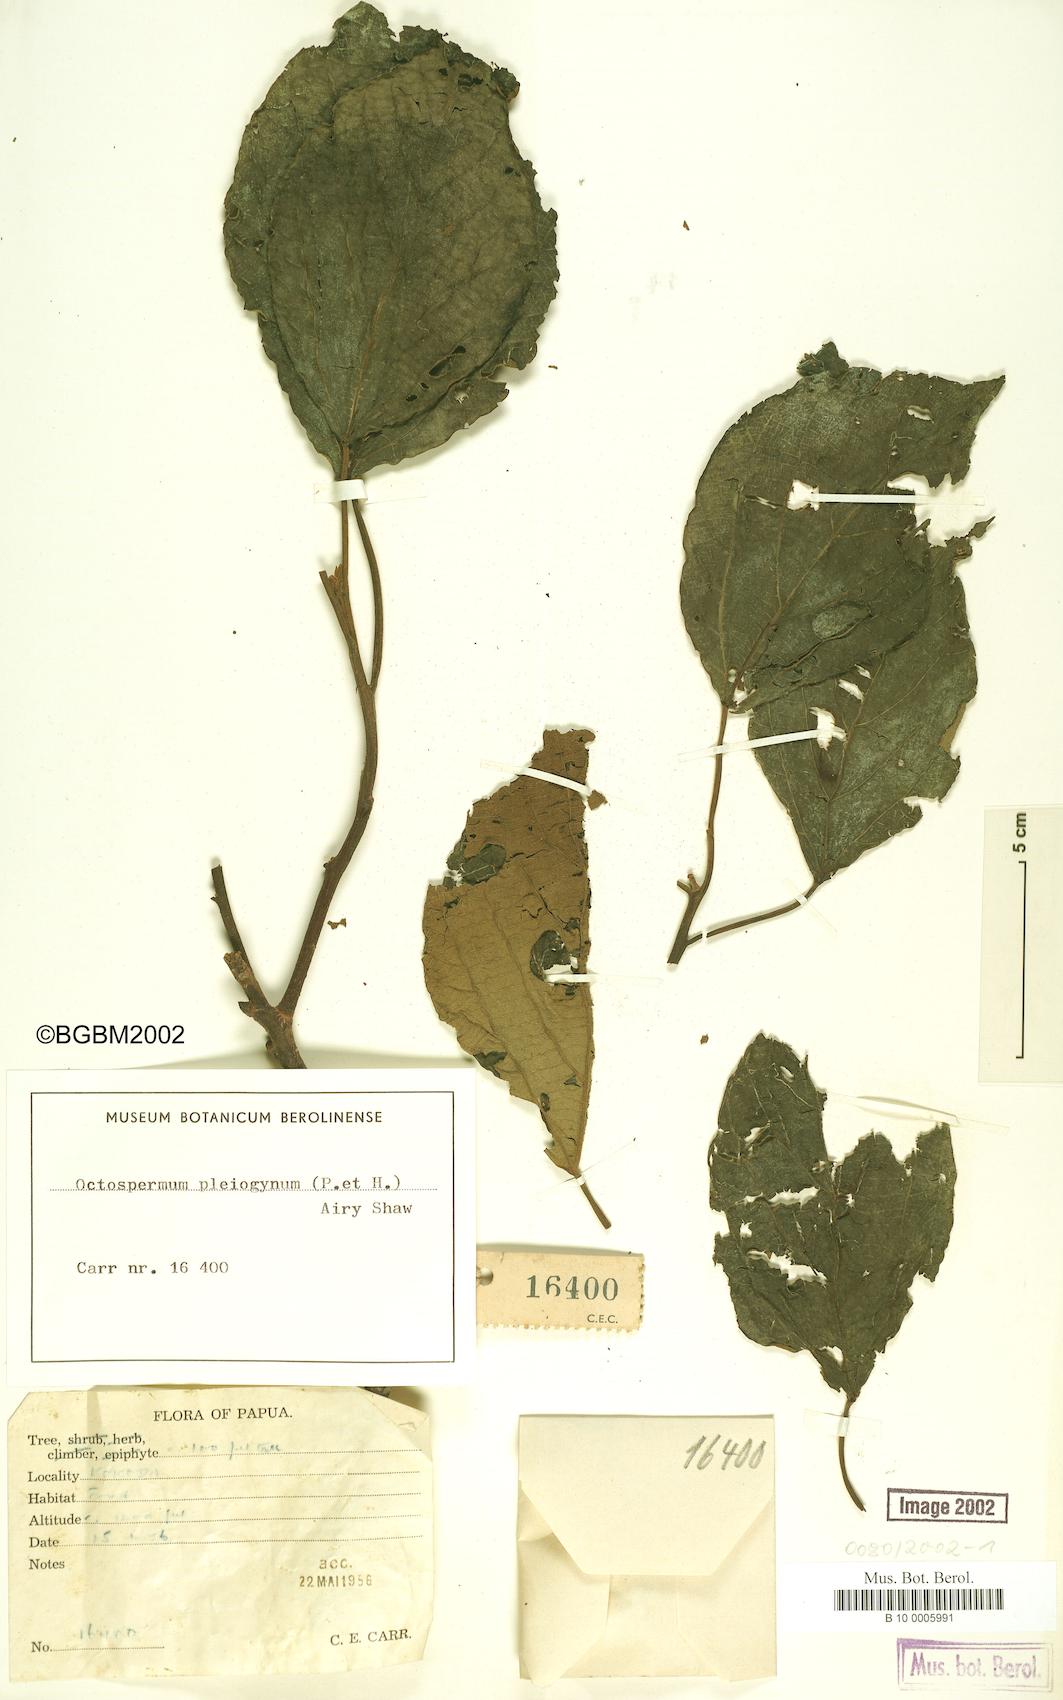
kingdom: Plantae
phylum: Tracheophyta
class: Magnoliopsida
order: Malpighiales
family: Euphorbiaceae
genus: Mallotus
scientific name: Mallotus pleiogynus
